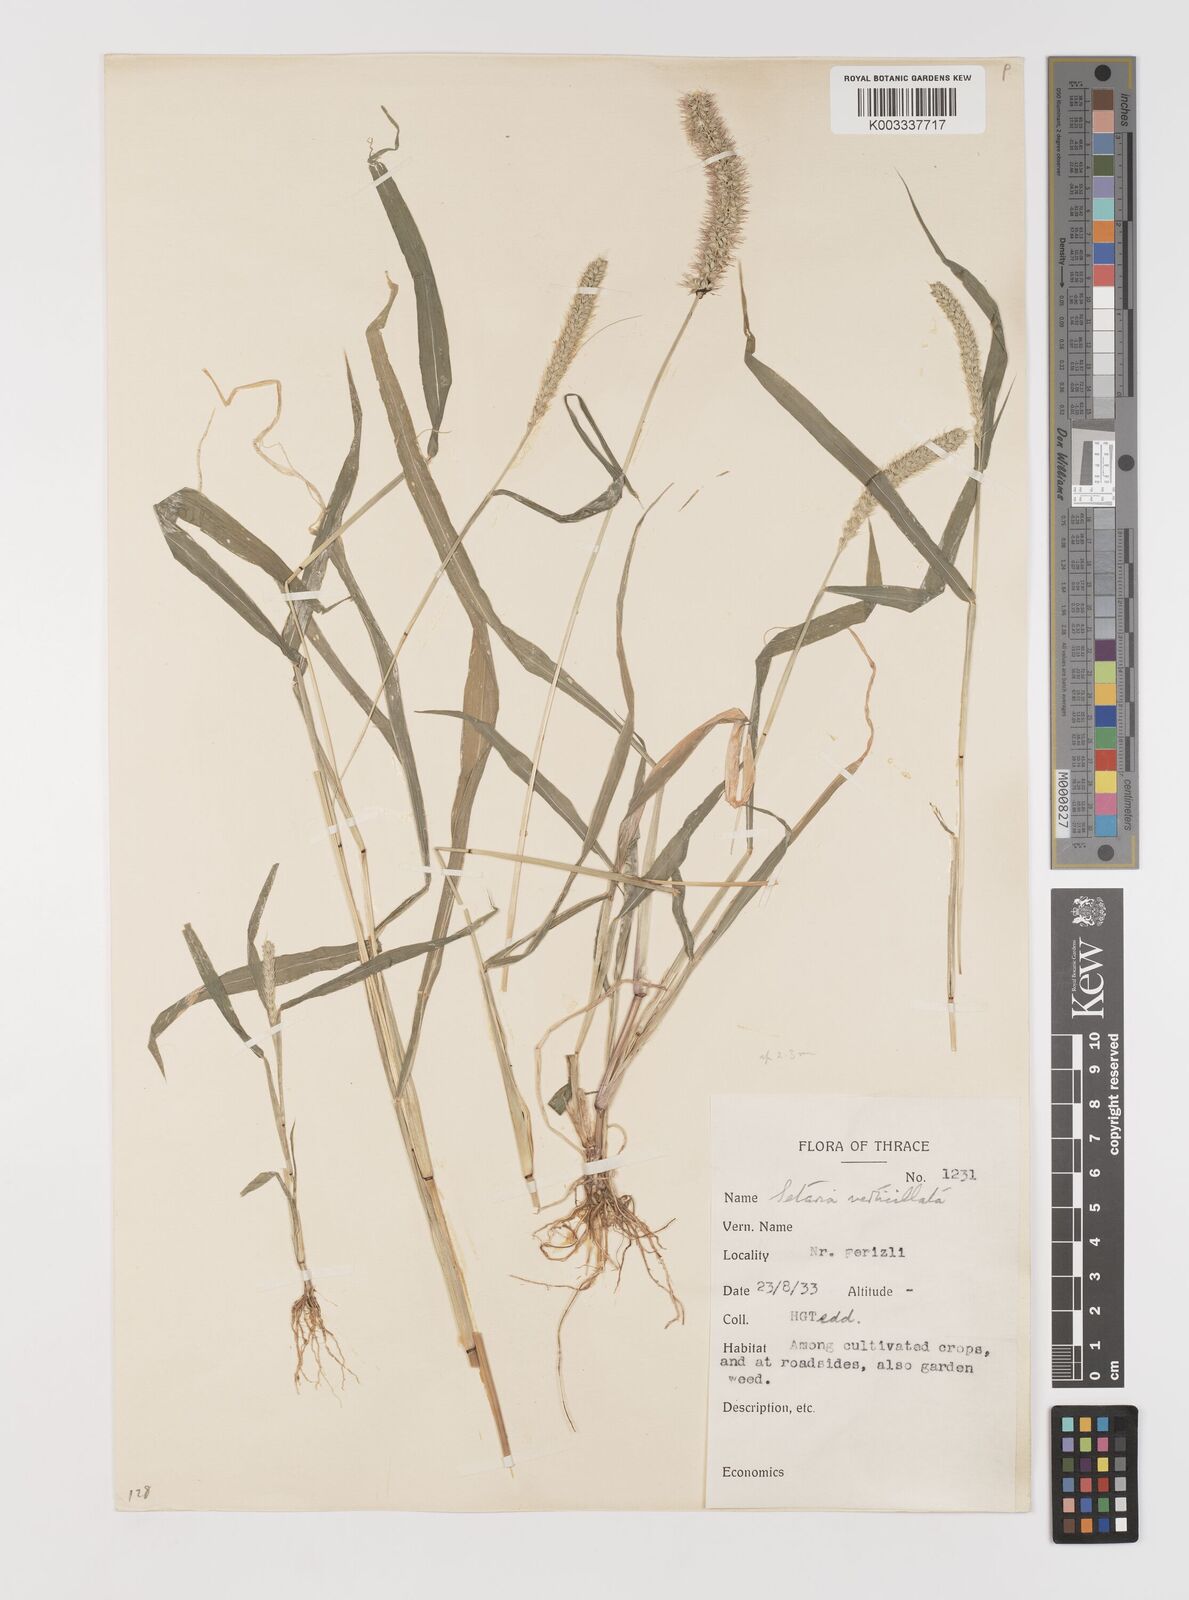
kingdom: Plantae
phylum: Tracheophyta
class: Liliopsida
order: Poales
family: Poaceae
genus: Setaria
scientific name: Setaria verticillata
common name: Hooked bristlegrass
